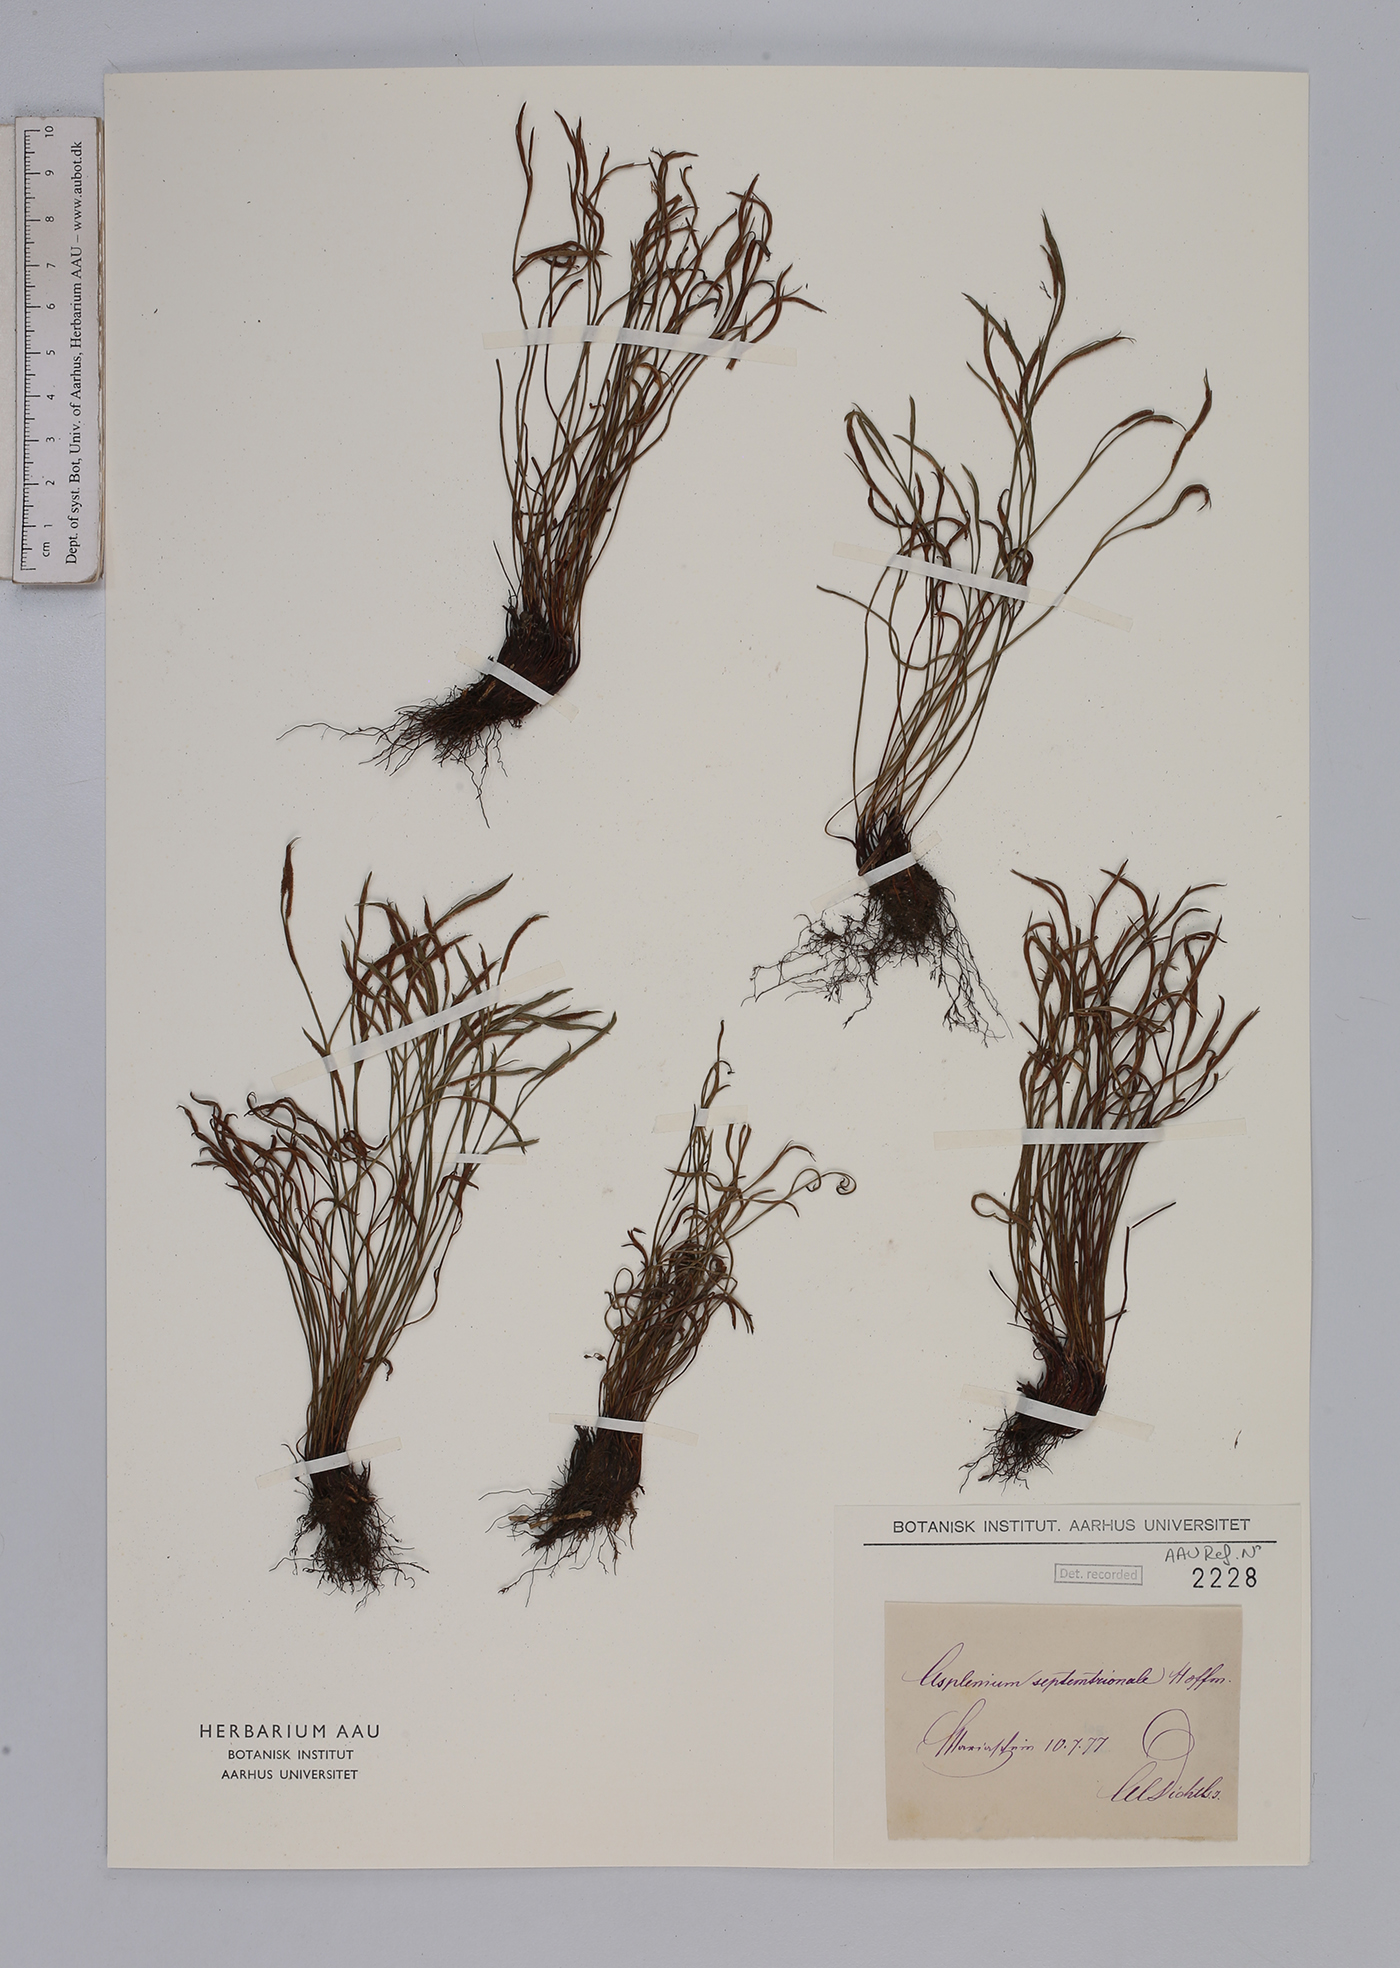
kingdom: Plantae
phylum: Tracheophyta
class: Polypodiopsida
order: Polypodiales
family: Aspleniaceae
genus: Asplenium
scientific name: Asplenium septentrionale
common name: Forked spleenwort
